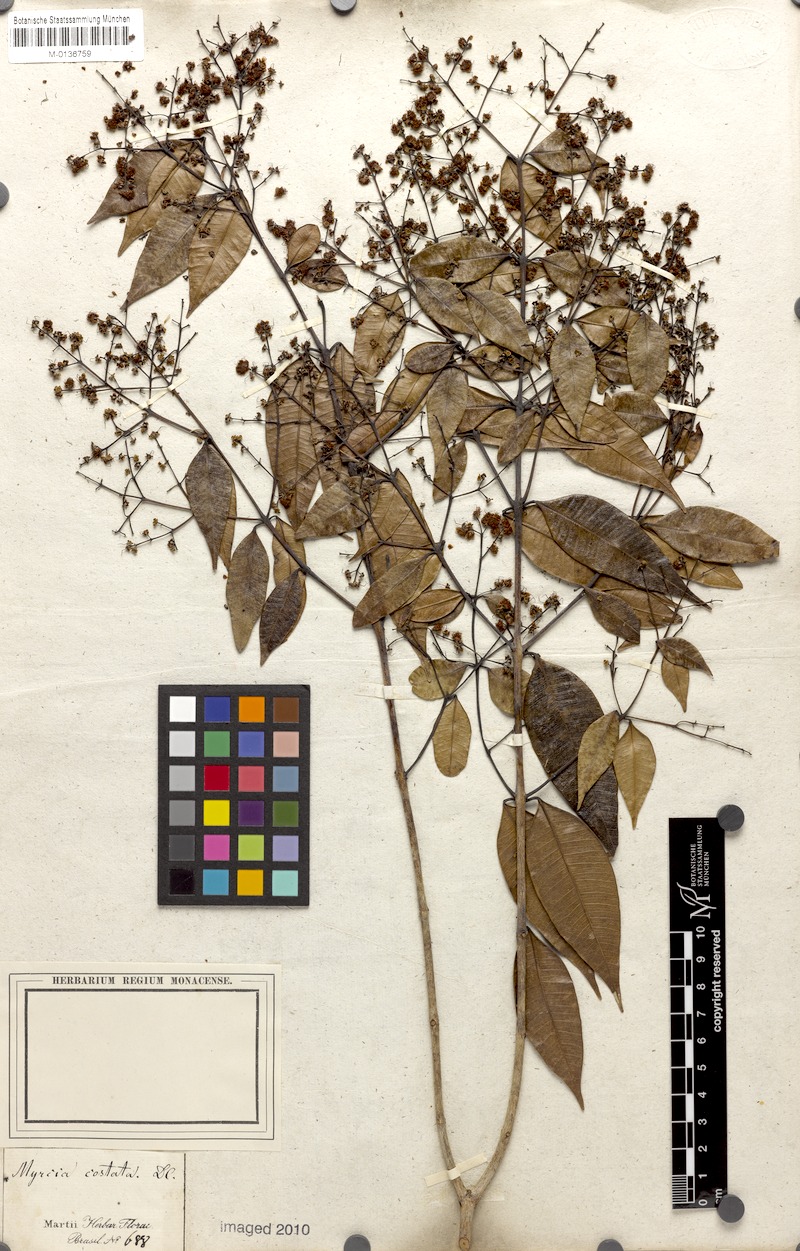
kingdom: Plantae
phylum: Tracheophyta
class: Magnoliopsida
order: Myrtales
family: Myrtaceae
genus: Myrcia
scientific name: Myrcia splendens
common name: Surinam cherry
